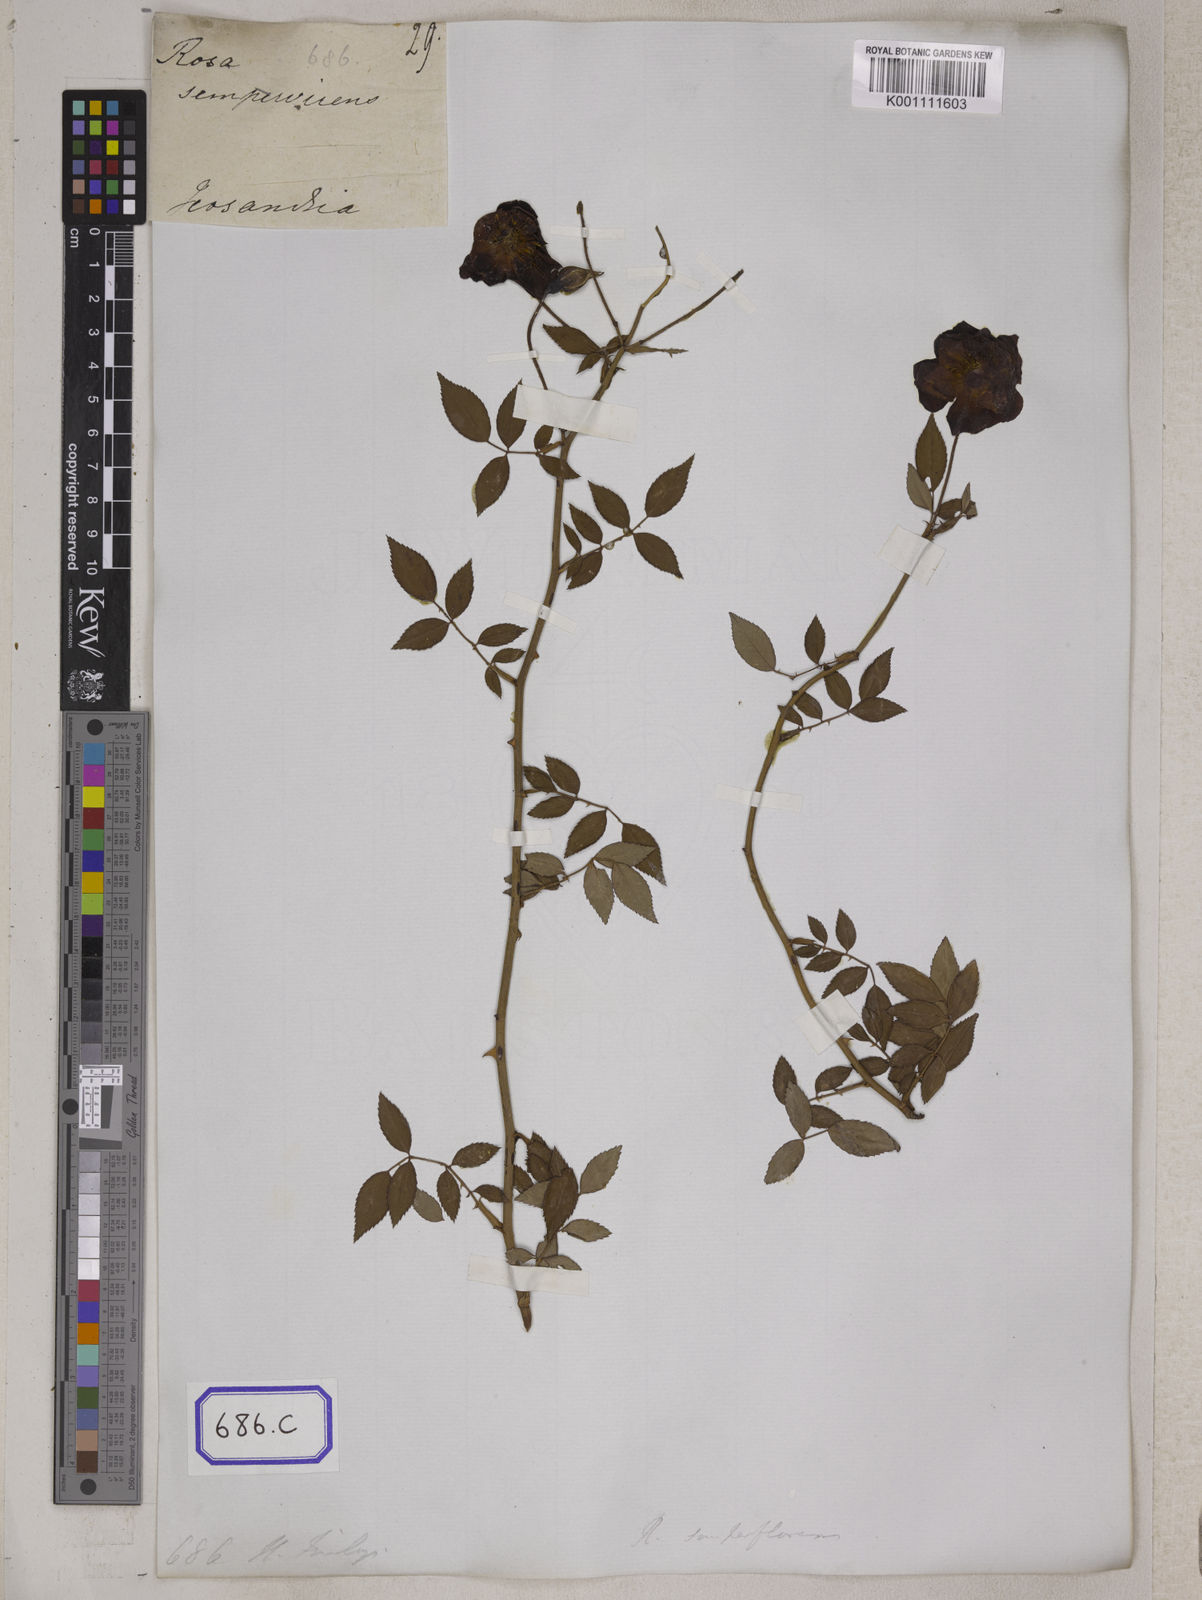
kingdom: Plantae
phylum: Tracheophyta
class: Magnoliopsida
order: Rosales
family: Rosaceae
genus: Rosa
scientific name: Rosa chinensis
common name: China rose
